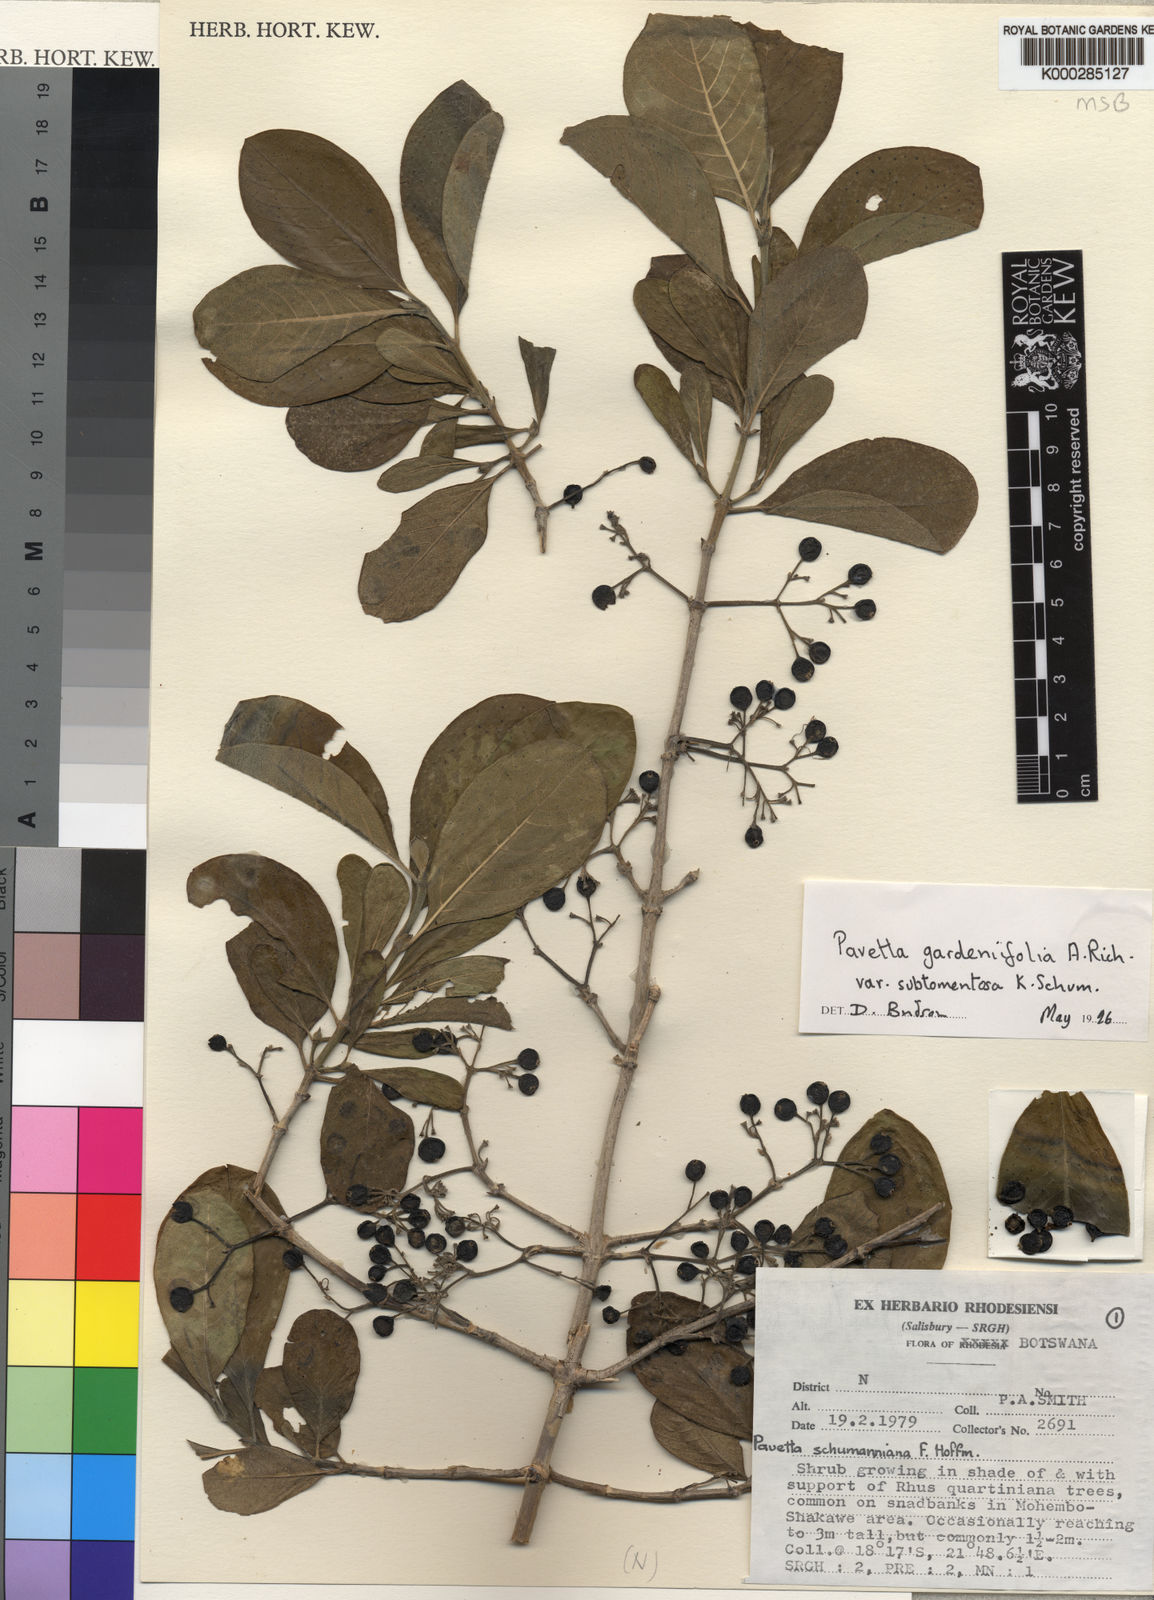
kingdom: Plantae
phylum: Tracheophyta
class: Magnoliopsida
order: Gentianales
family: Rubiaceae
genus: Pavetta
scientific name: Pavetta gardeniifolia
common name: Common brides-bush
